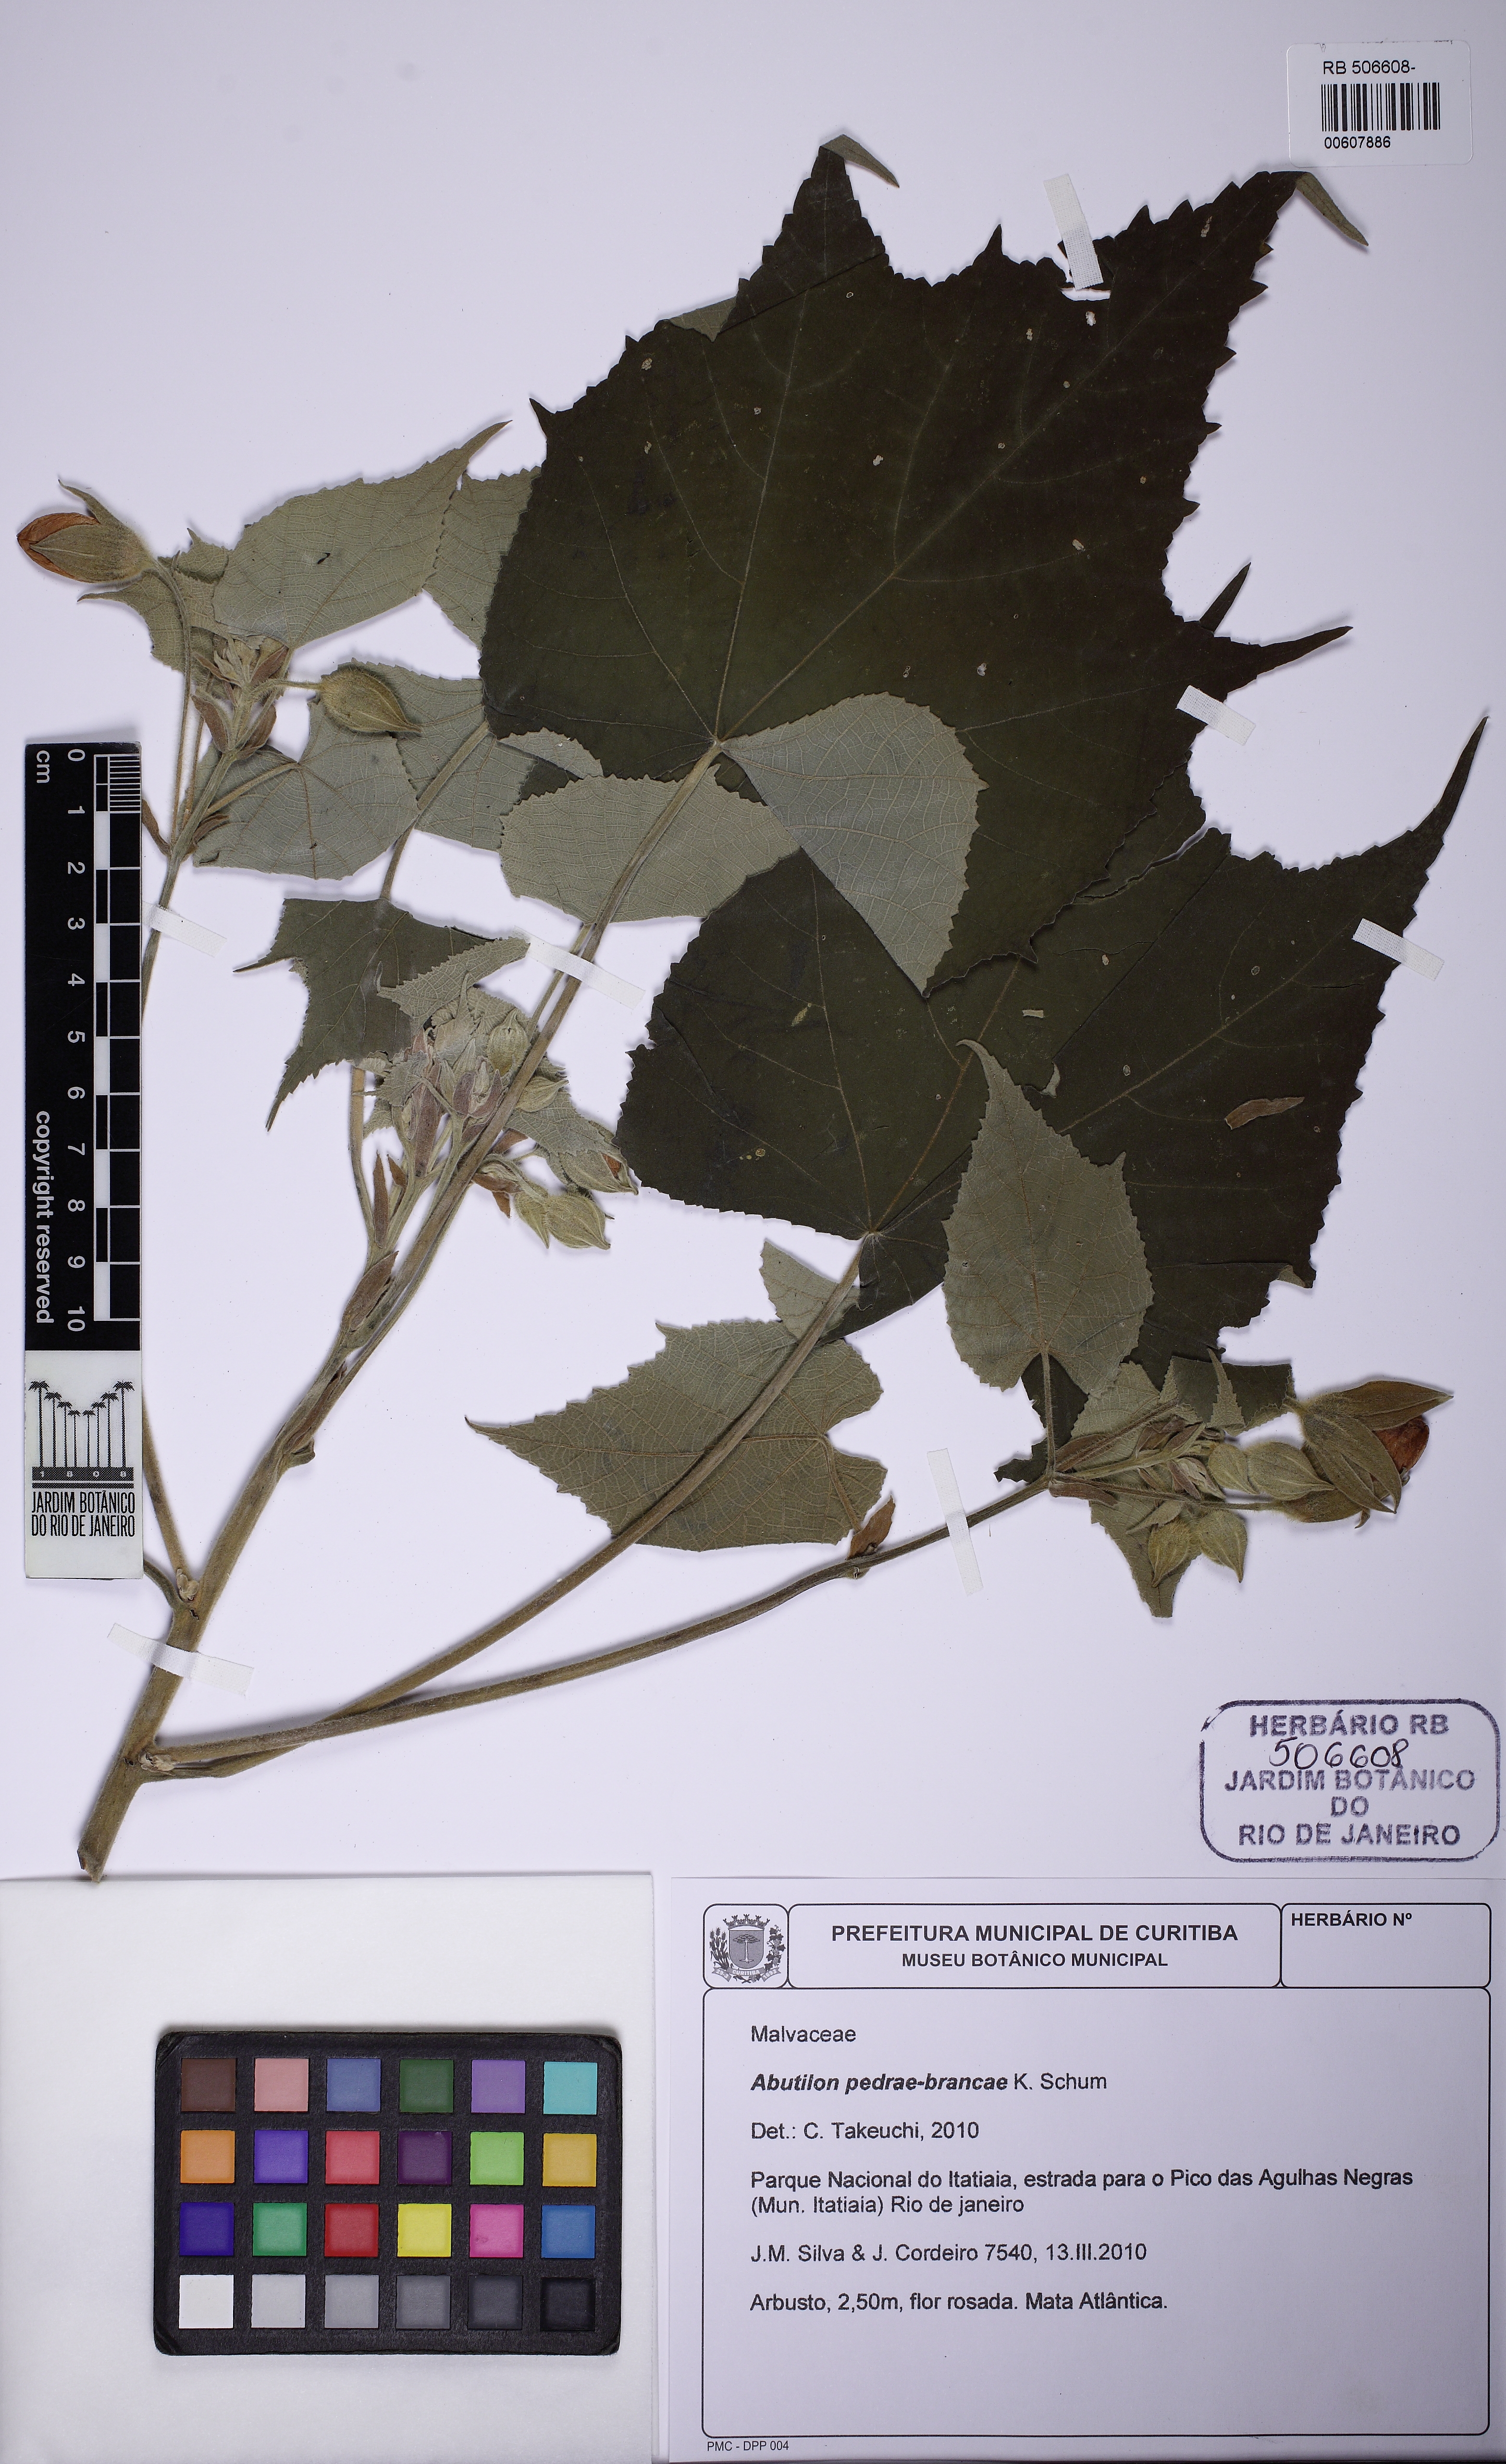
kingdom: Plantae
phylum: Tracheophyta
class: Magnoliopsida
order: Malvales
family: Malvaceae
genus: Abutilon
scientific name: Abutilon pedrae-brancae
